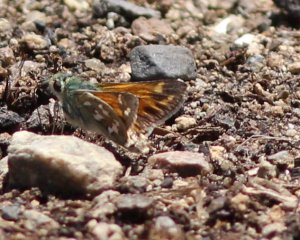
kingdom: Animalia
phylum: Arthropoda
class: Insecta
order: Lepidoptera
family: Hesperiidae
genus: Hesperia
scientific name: Hesperia juba
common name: Juba Skipper
